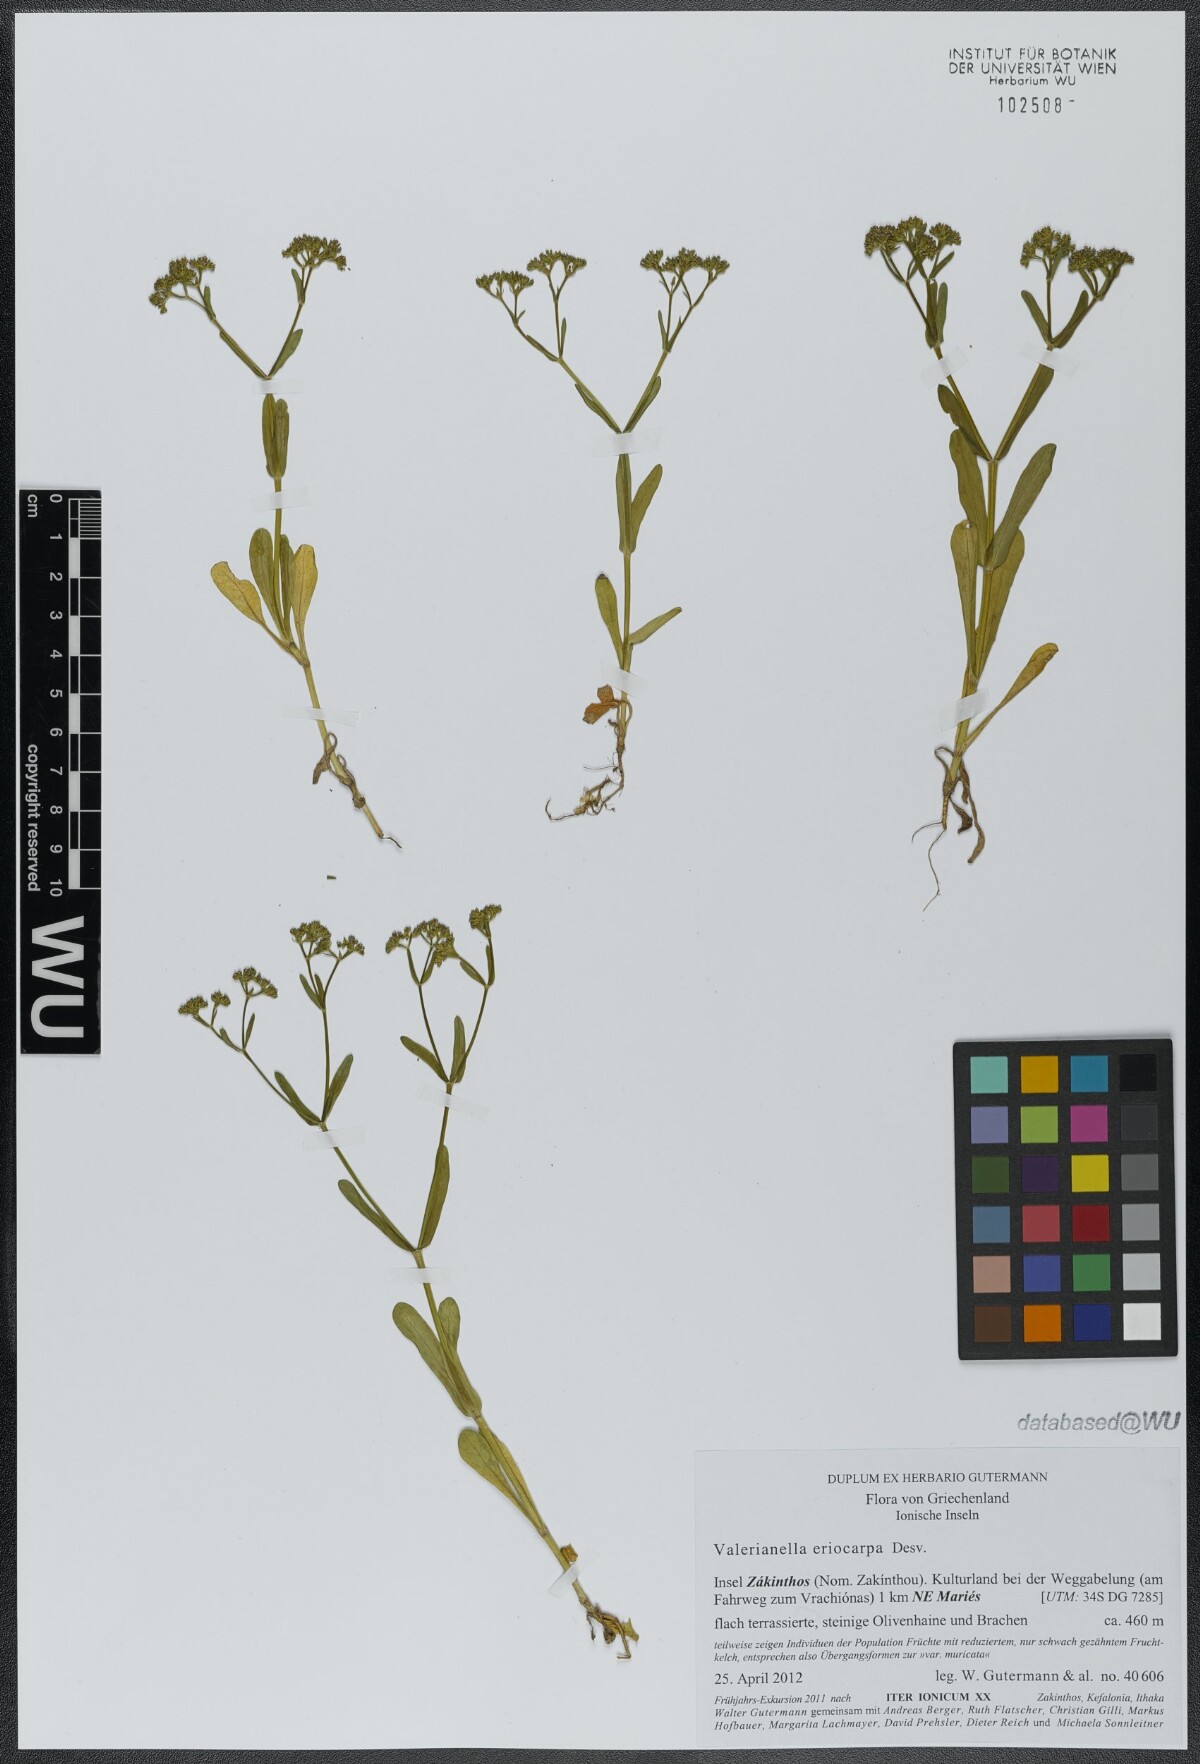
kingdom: Plantae
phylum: Tracheophyta
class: Magnoliopsida
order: Dipsacales
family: Caprifoliaceae
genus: Valerianella
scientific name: Valerianella eriocarpa
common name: Hairy-fruited cornsalad
